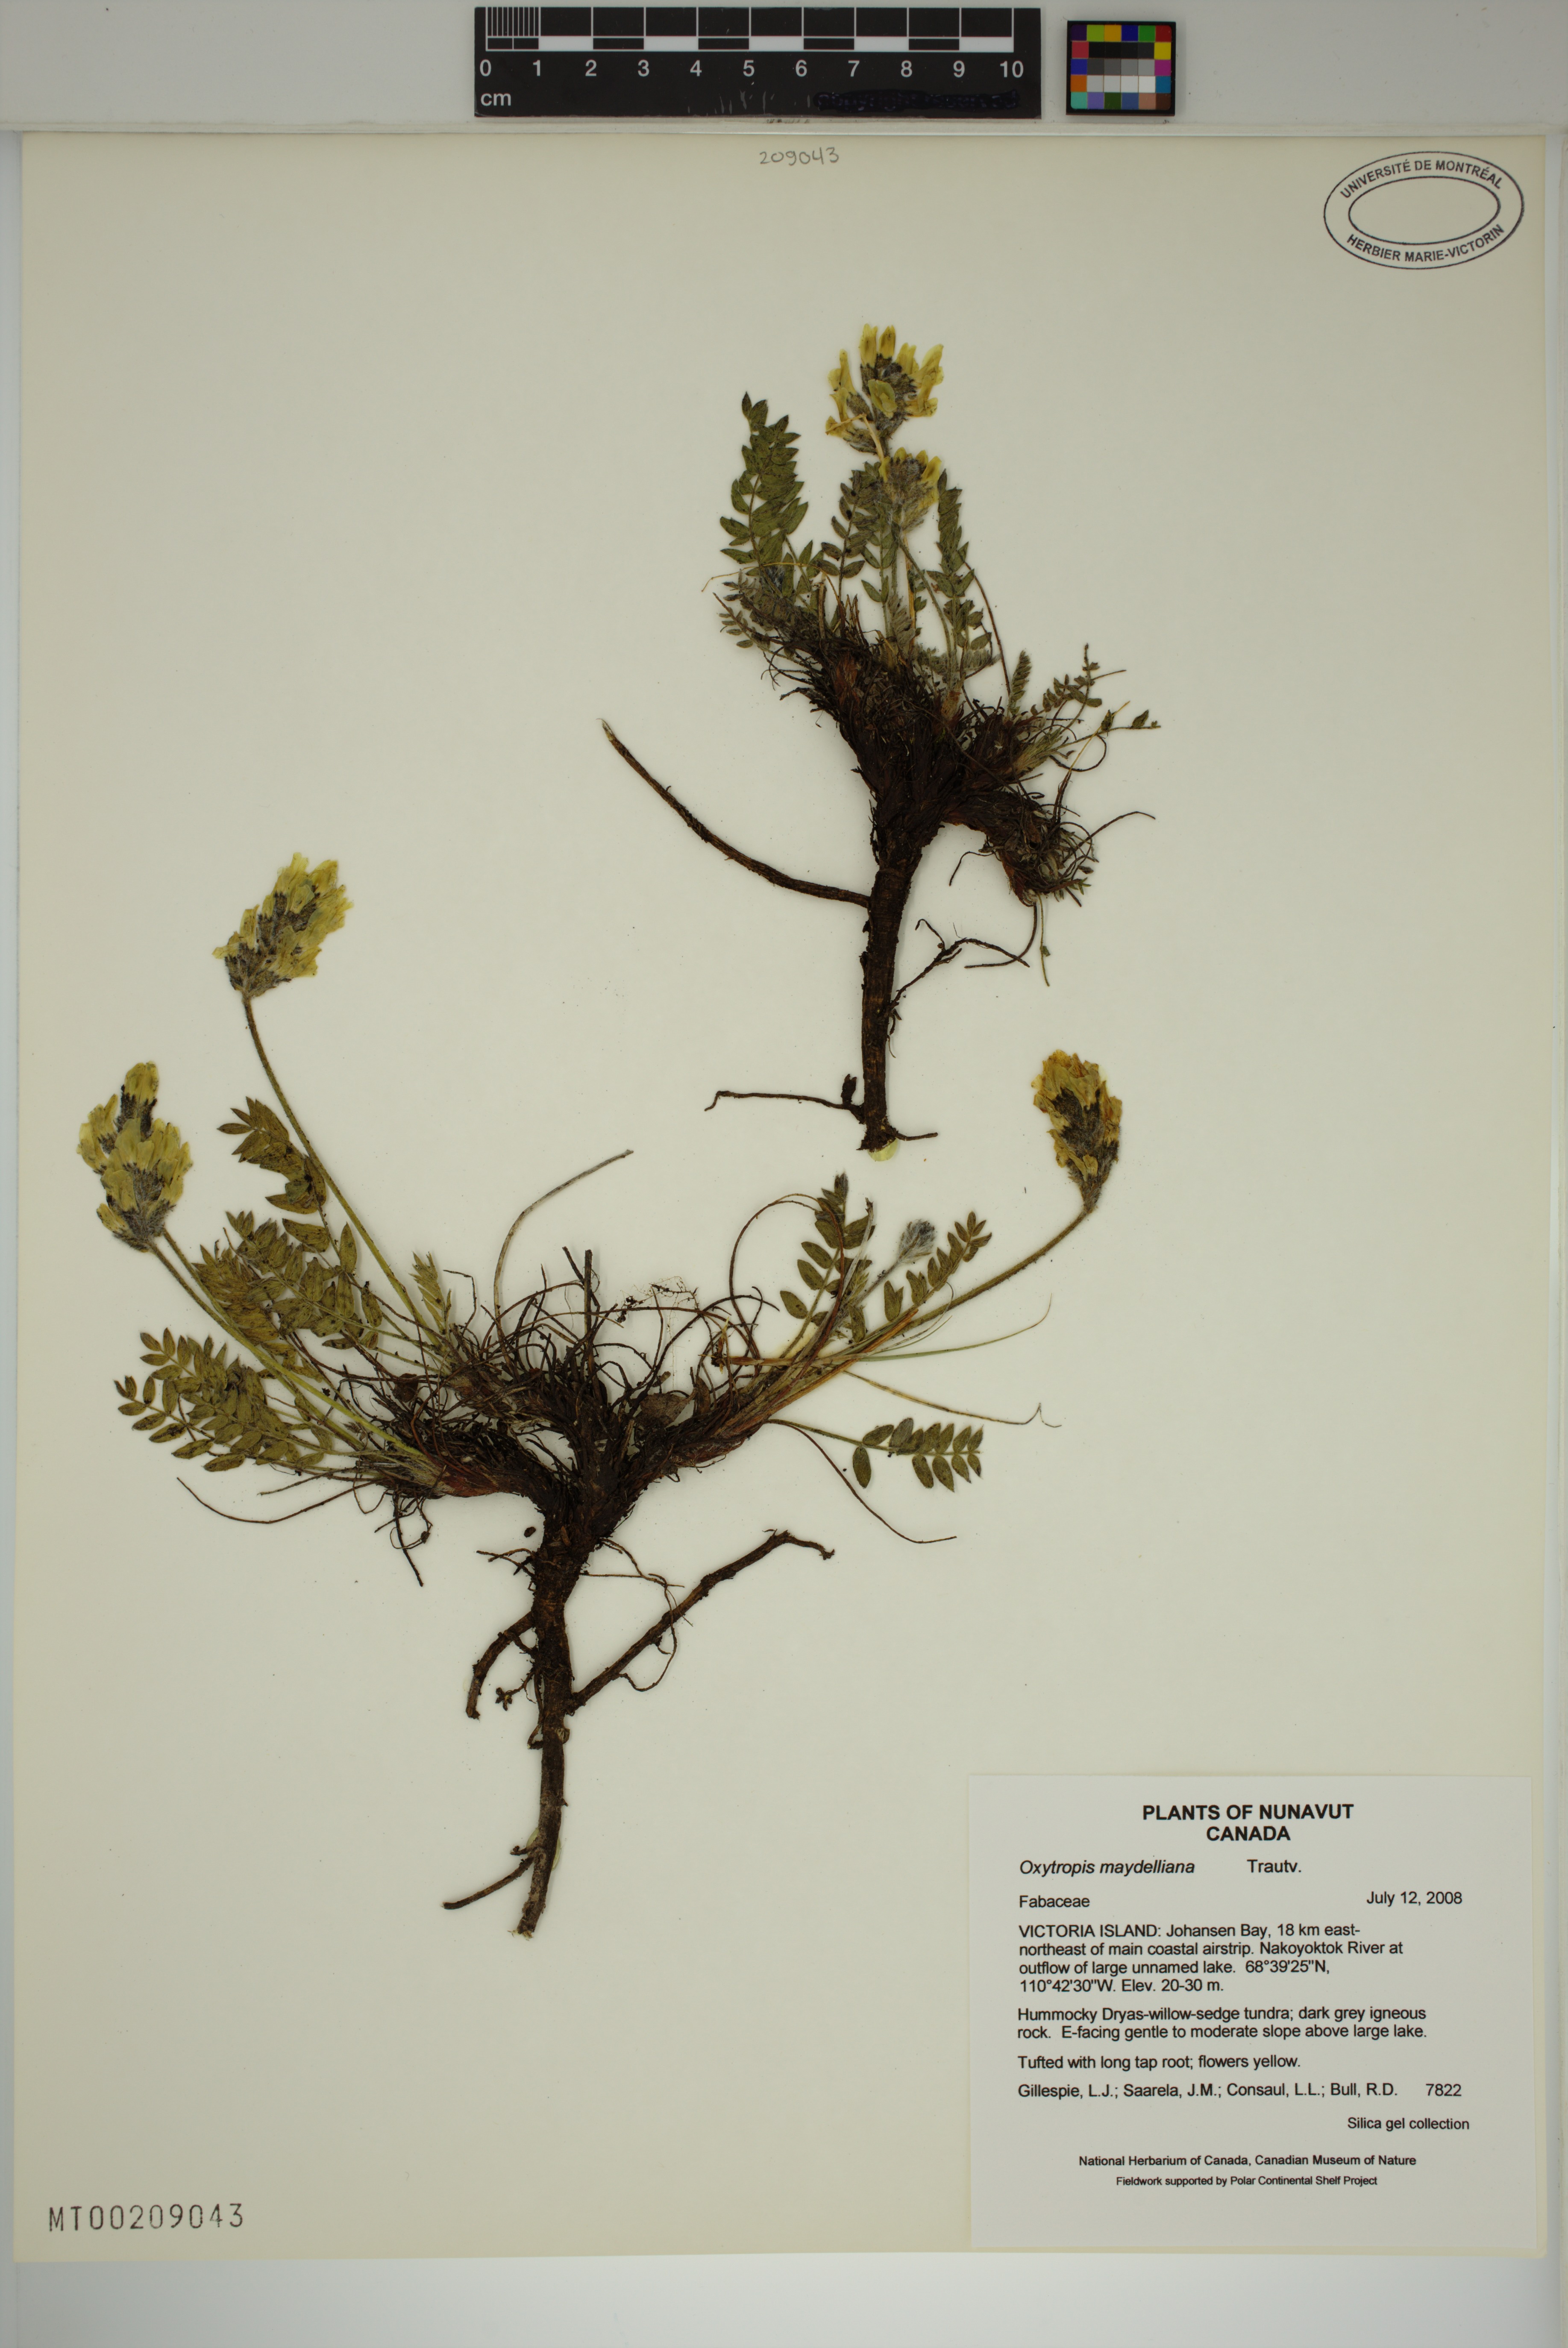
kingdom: Plantae
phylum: Tracheophyta
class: Magnoliopsida
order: Fabales
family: Fabaceae
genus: Oxytropis
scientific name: Oxytropis maydelliana
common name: Maydell's locoweed
